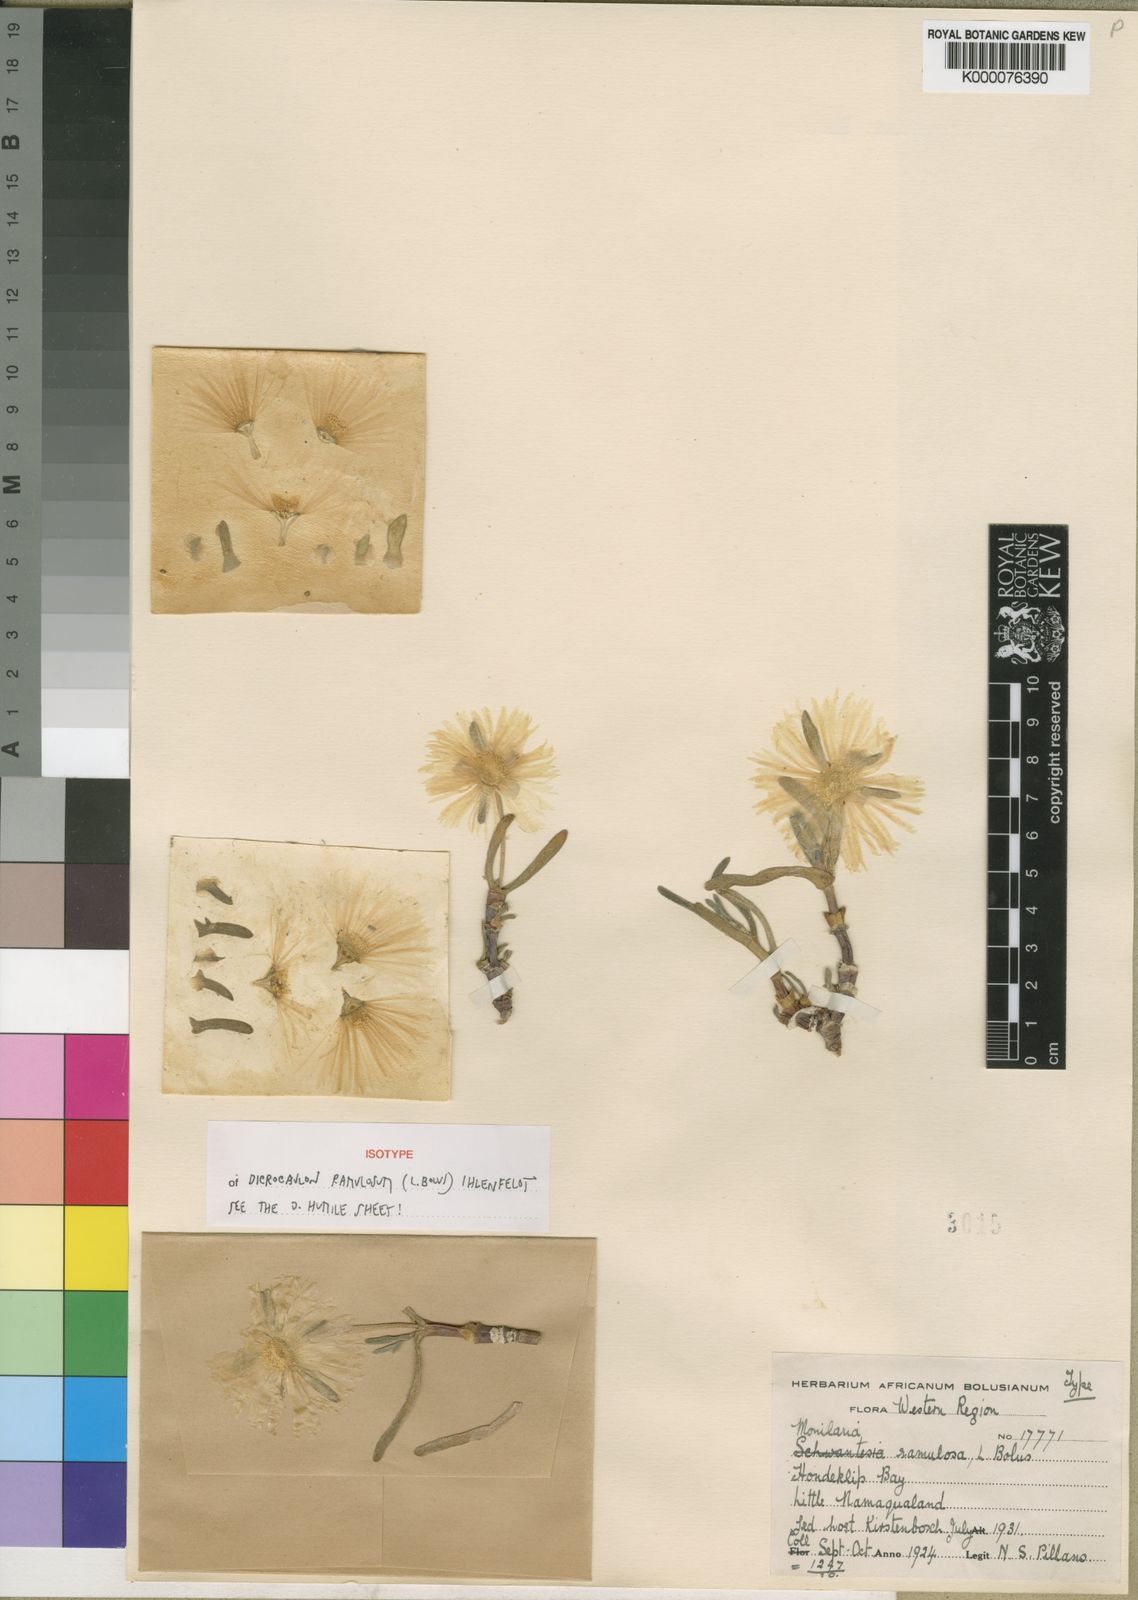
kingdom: Plantae
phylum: Tracheophyta
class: Magnoliopsida
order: Caryophyllales
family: Aizoaceae
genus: Dicrocaulon
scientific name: Dicrocaulon ramulosum
